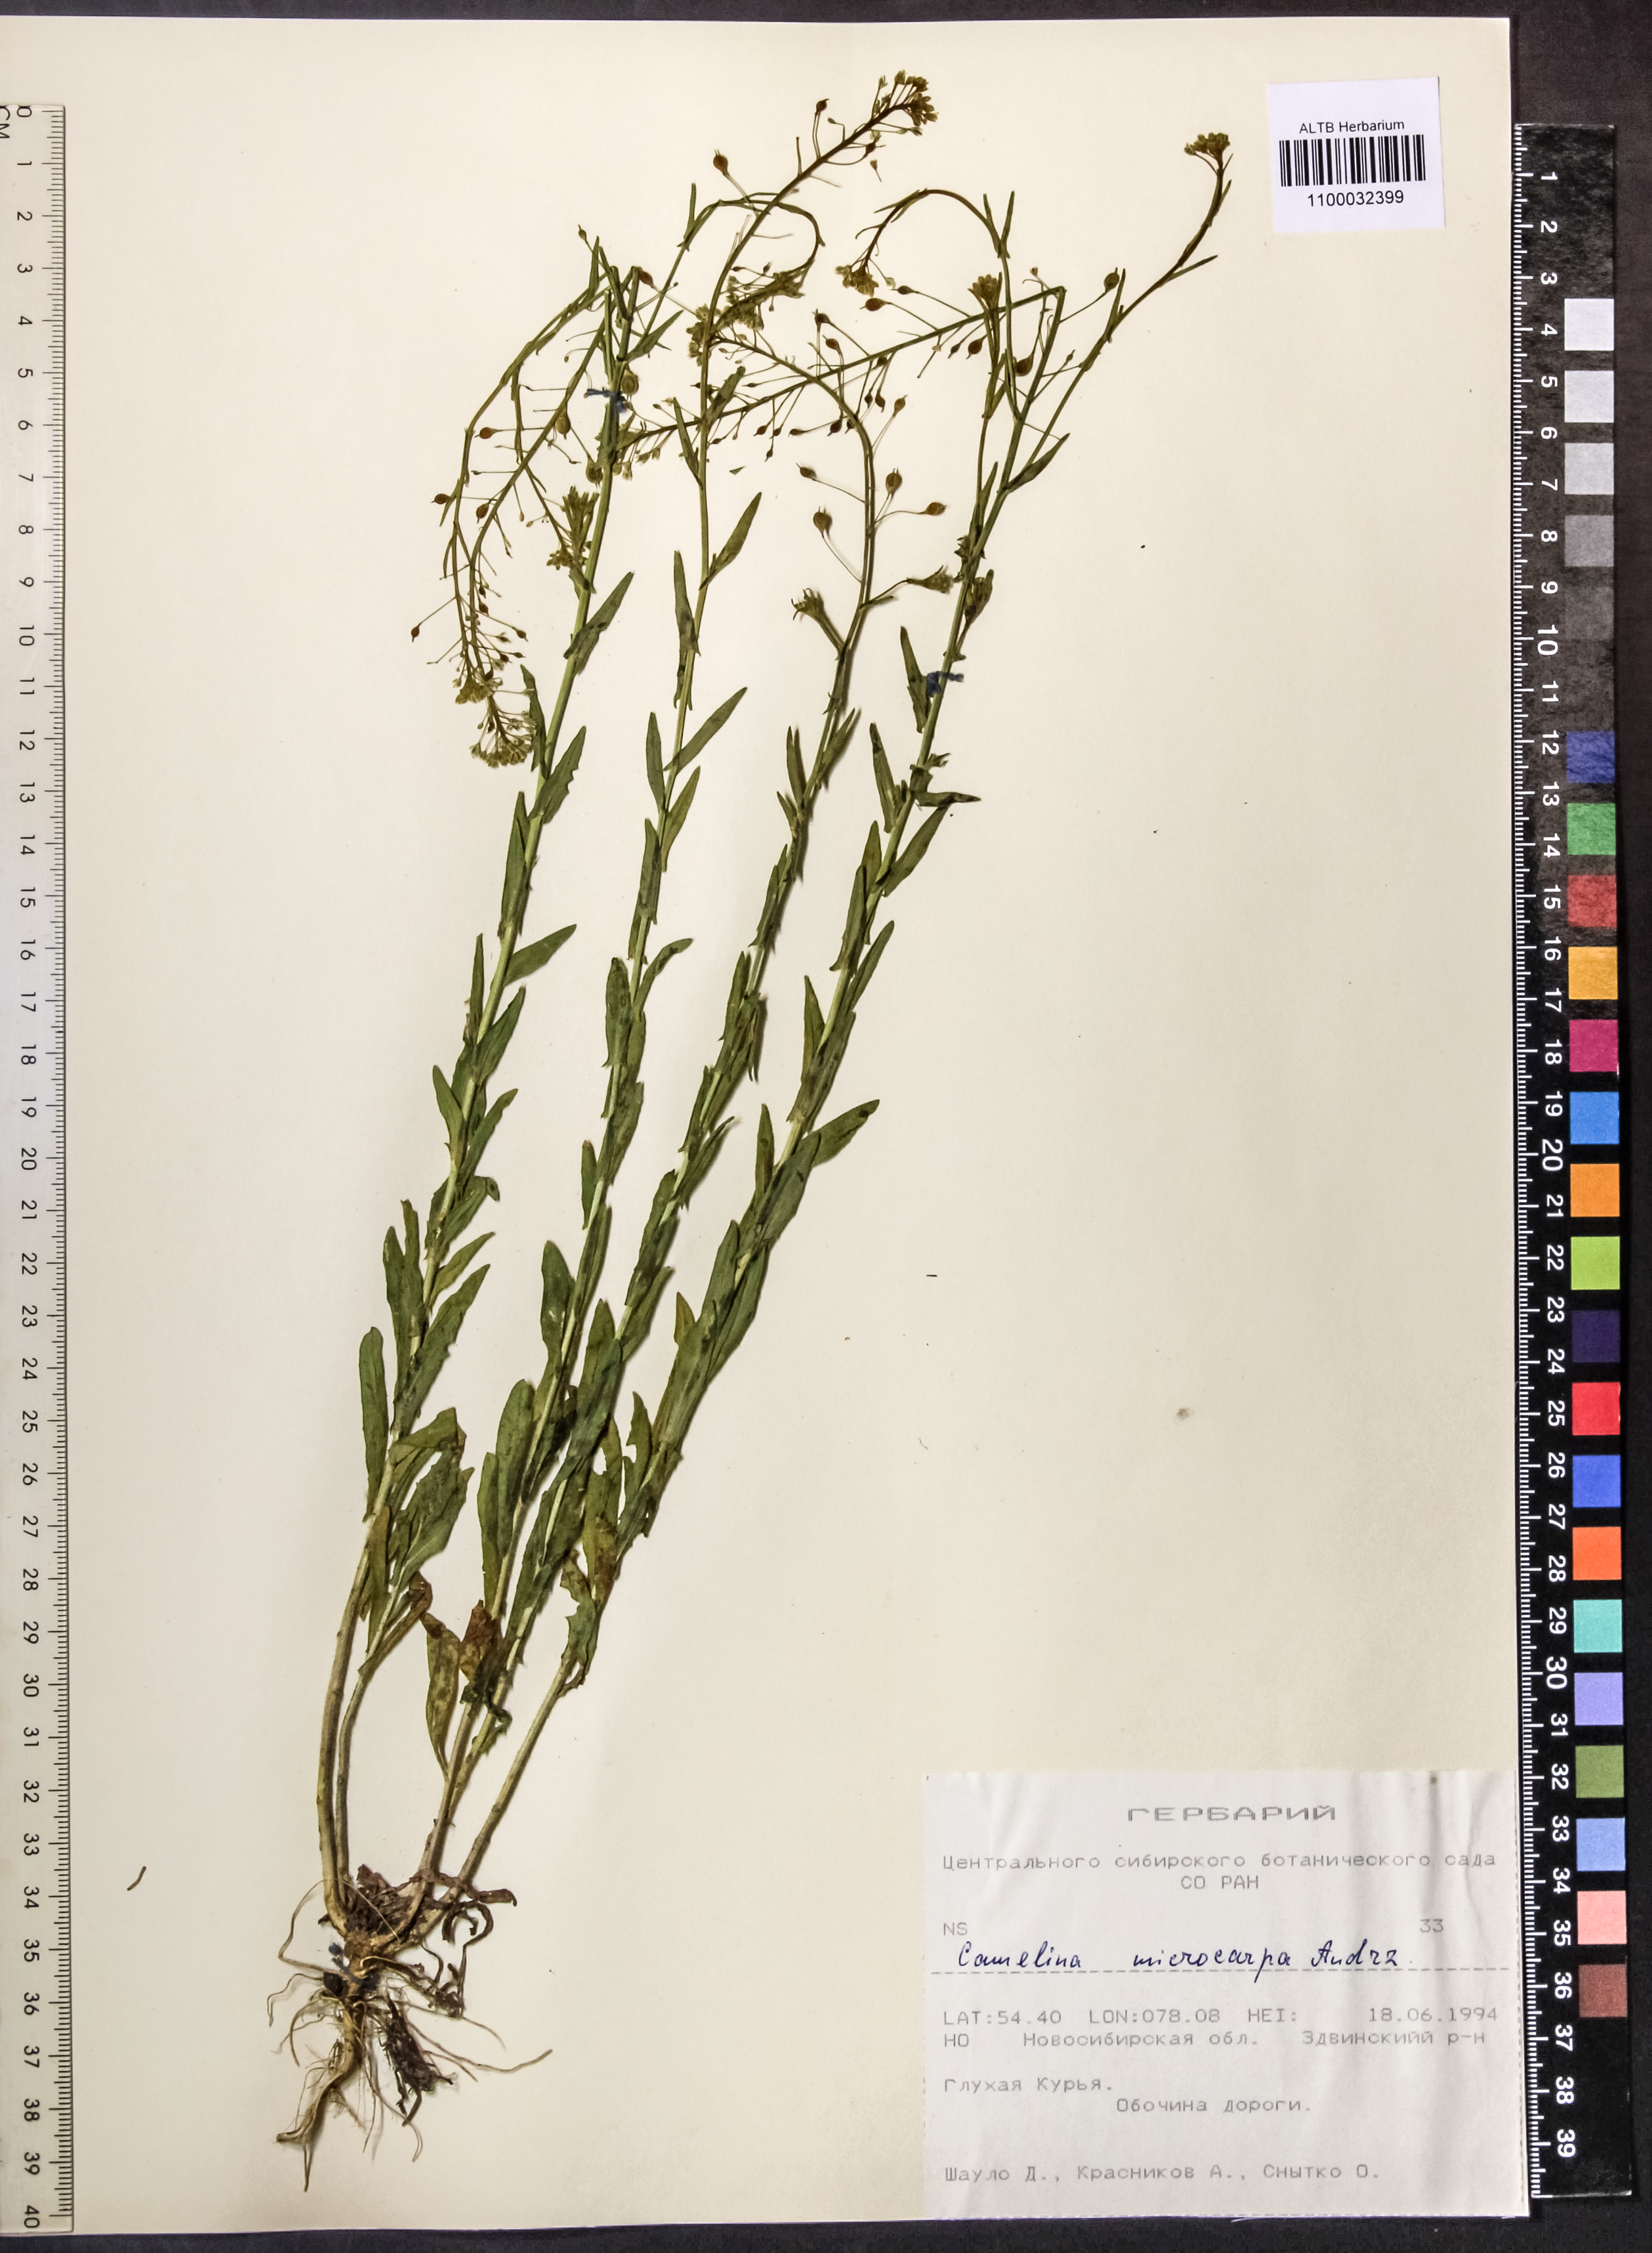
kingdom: Plantae
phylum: Tracheophyta
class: Magnoliopsida
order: Brassicales
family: Brassicaceae
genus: Camelina
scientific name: Camelina microcarpa
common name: Lesser gold-of-pleasure
